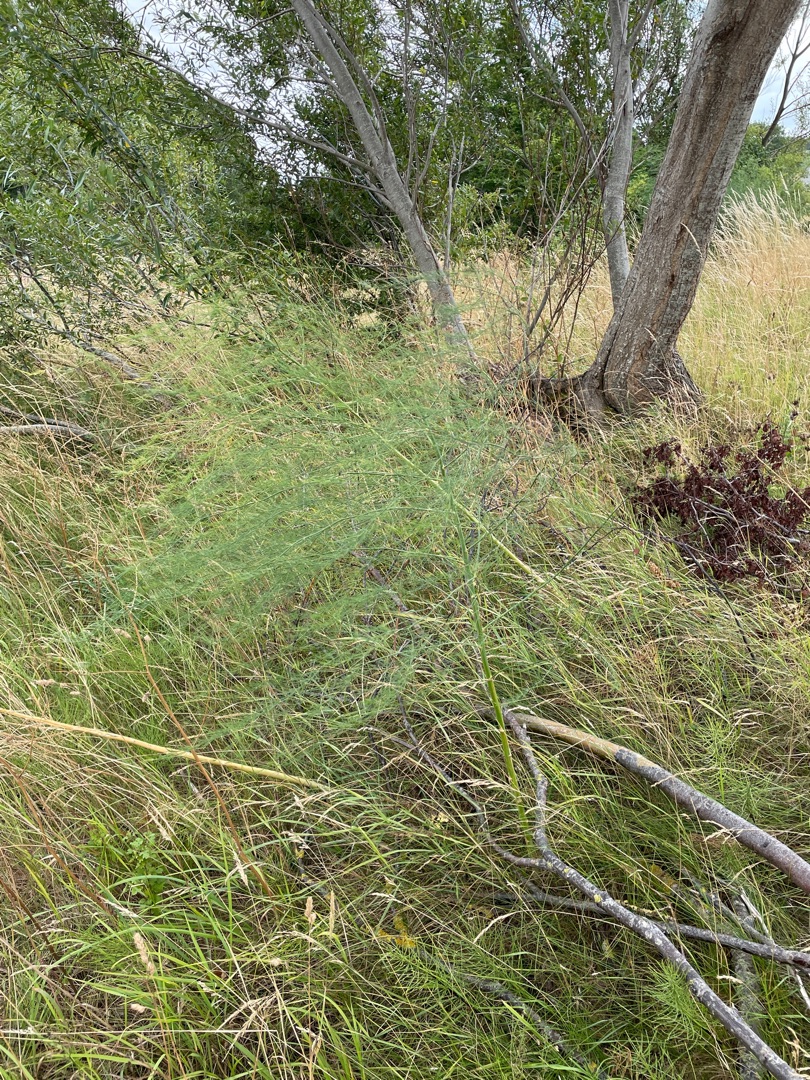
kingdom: Plantae
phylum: Tracheophyta
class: Liliopsida
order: Asparagales
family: Asparagaceae
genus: Asparagus
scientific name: Asparagus officinalis
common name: Asparges
